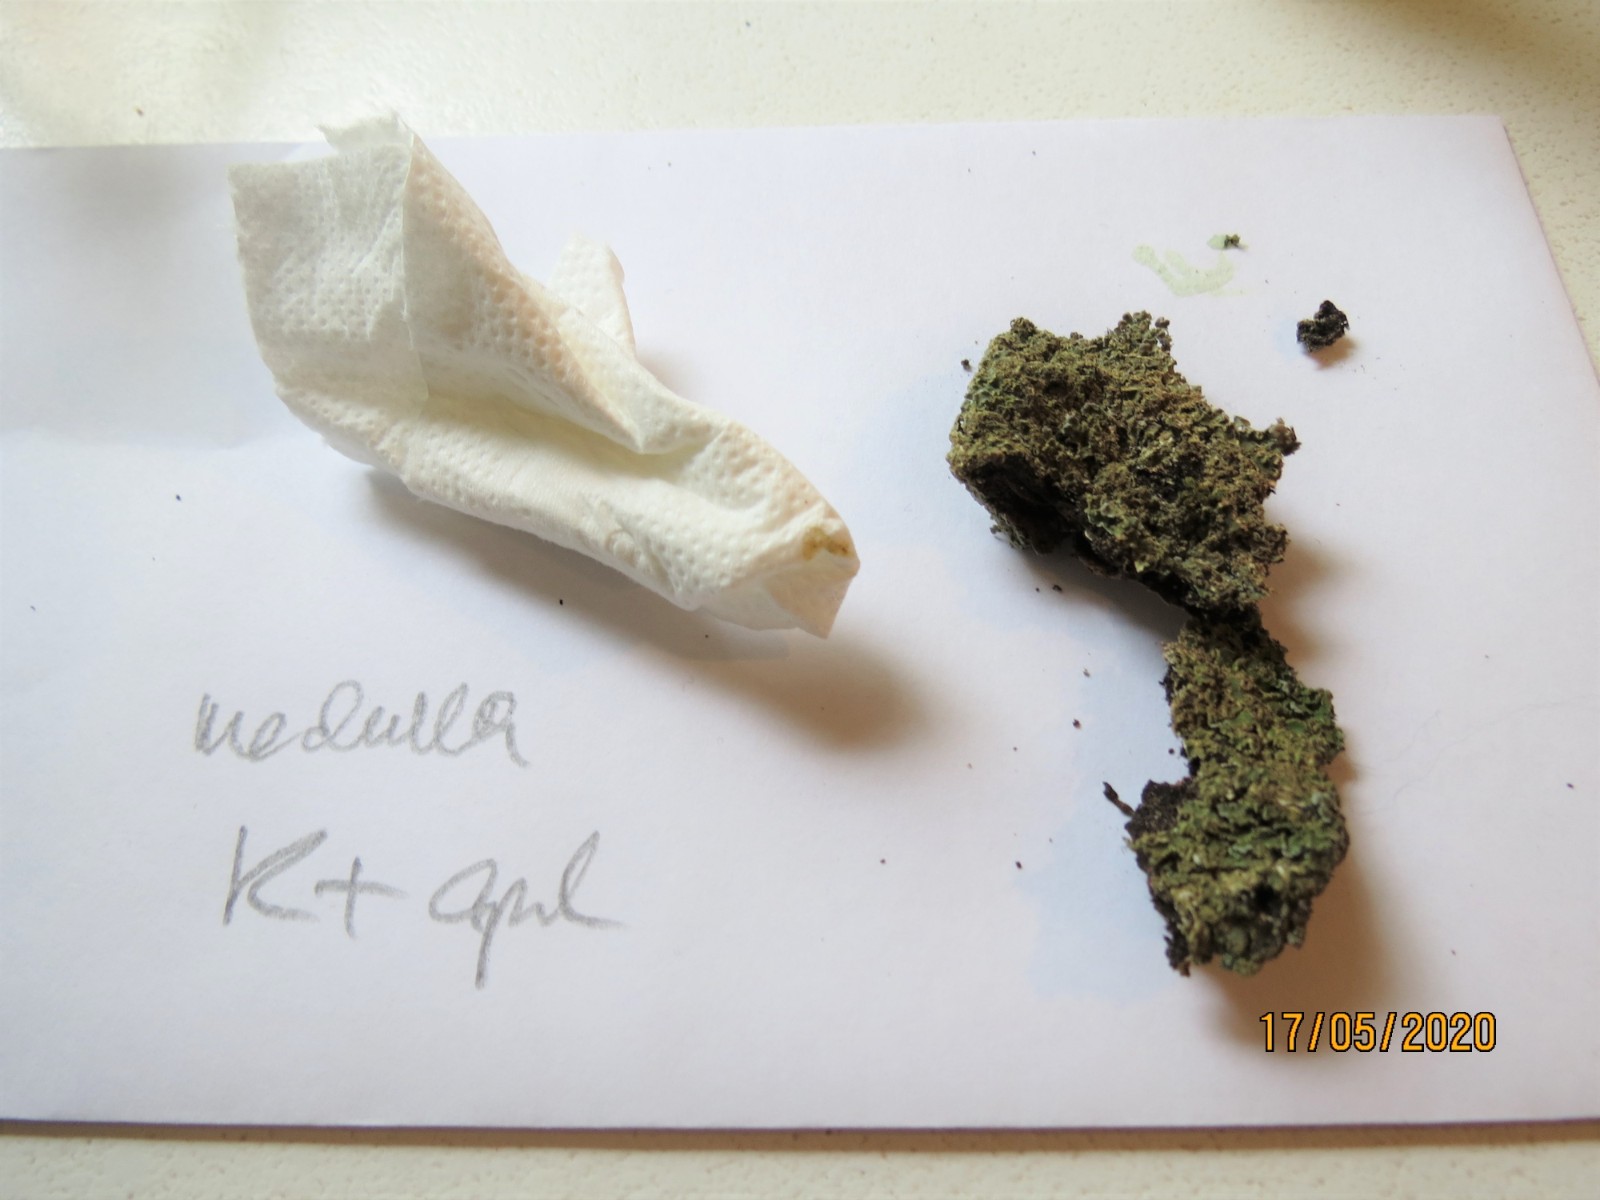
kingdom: Fungi
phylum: Ascomycota
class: Lecanoromycetes
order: Caliciales
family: Physciaceae
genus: Physconia
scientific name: Physconia enteroxantha
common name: grynet dugrosetlav
